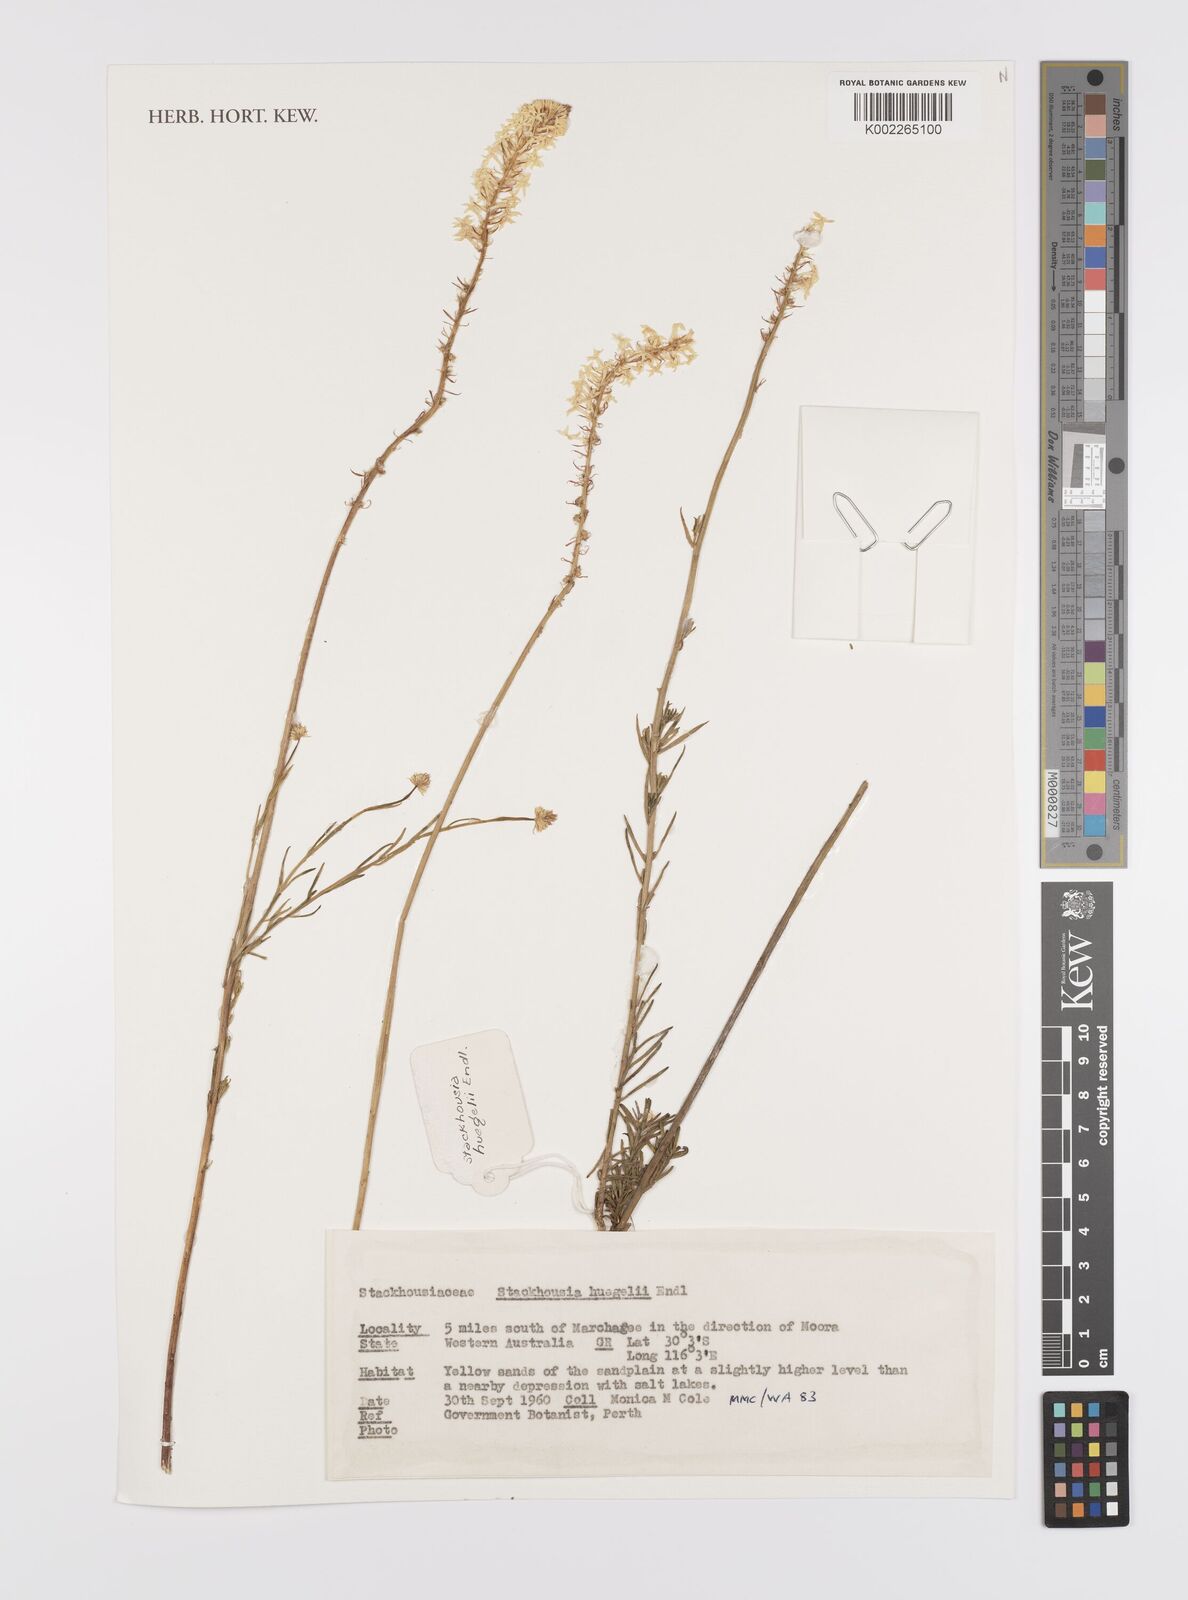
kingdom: Plantae
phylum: Tracheophyta
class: Magnoliopsida
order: Celastrales
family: Celastraceae
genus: Stackhousia
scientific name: Stackhousia monogyna
